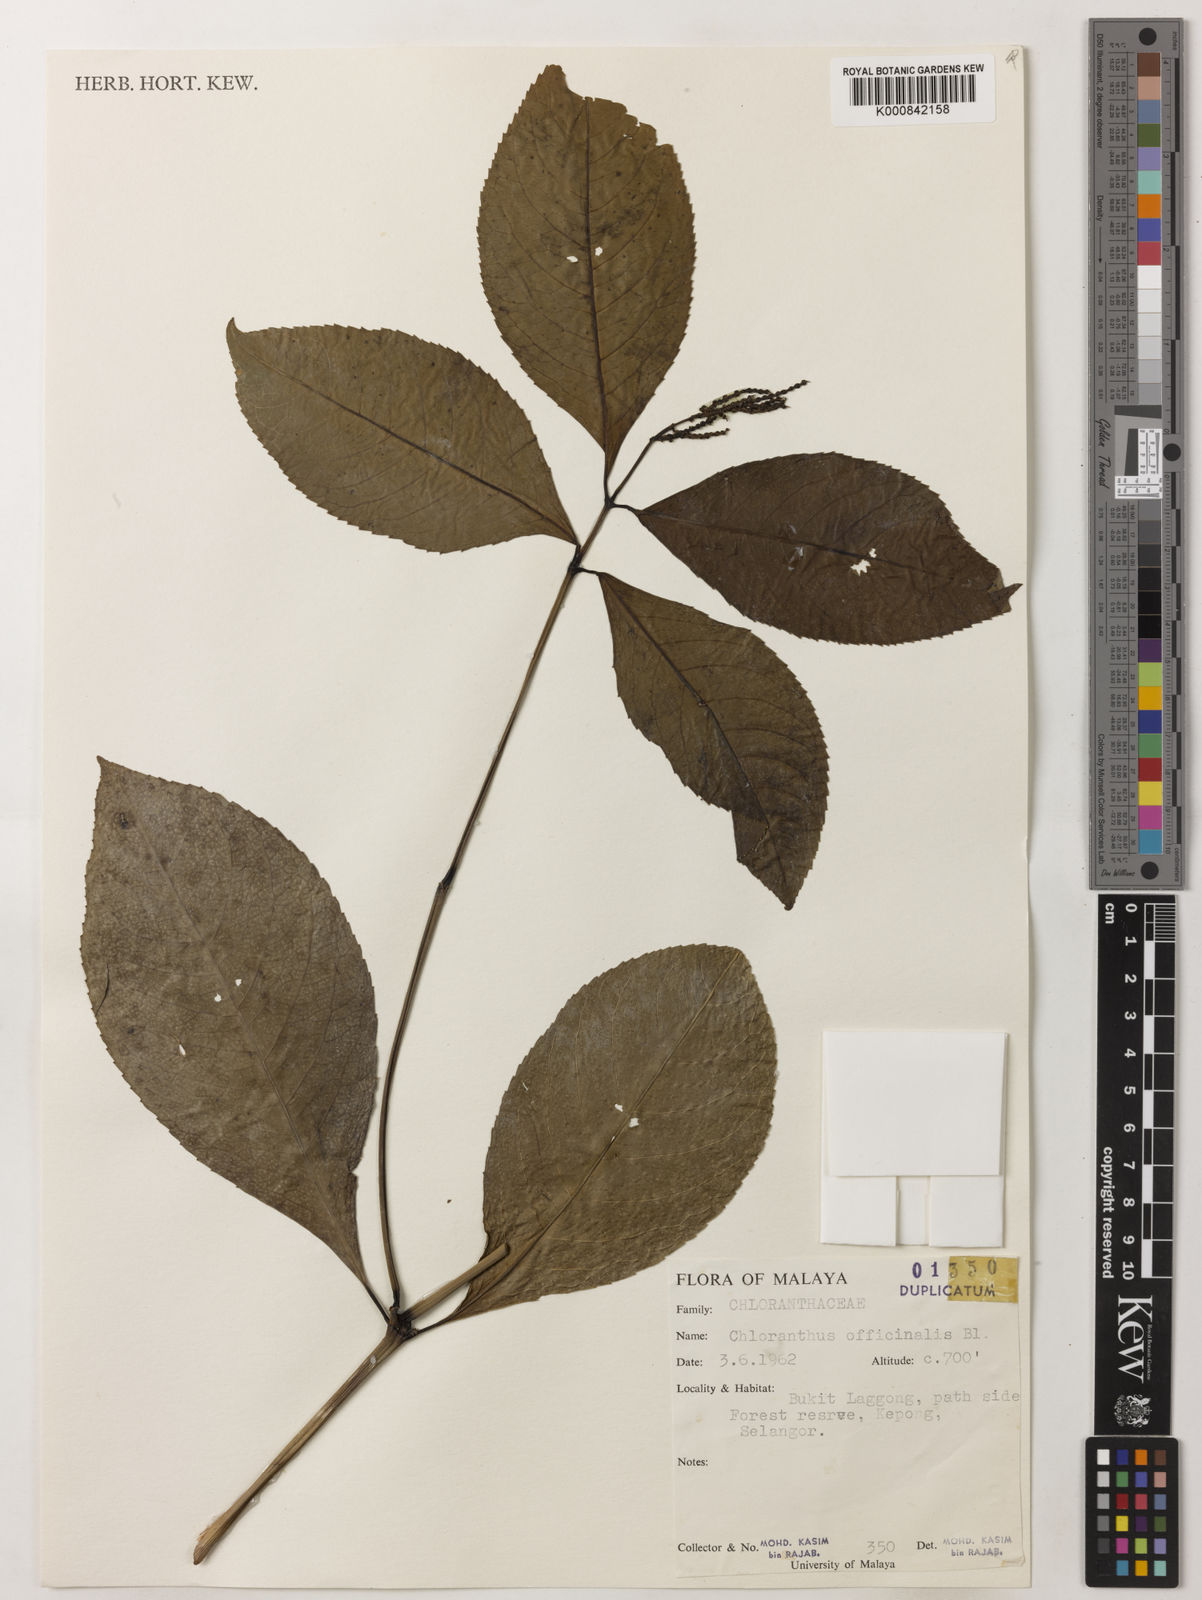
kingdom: Plantae
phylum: Tracheophyta
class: Magnoliopsida
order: Chloranthales
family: Chloranthaceae
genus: Chloranthus
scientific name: Chloranthus
